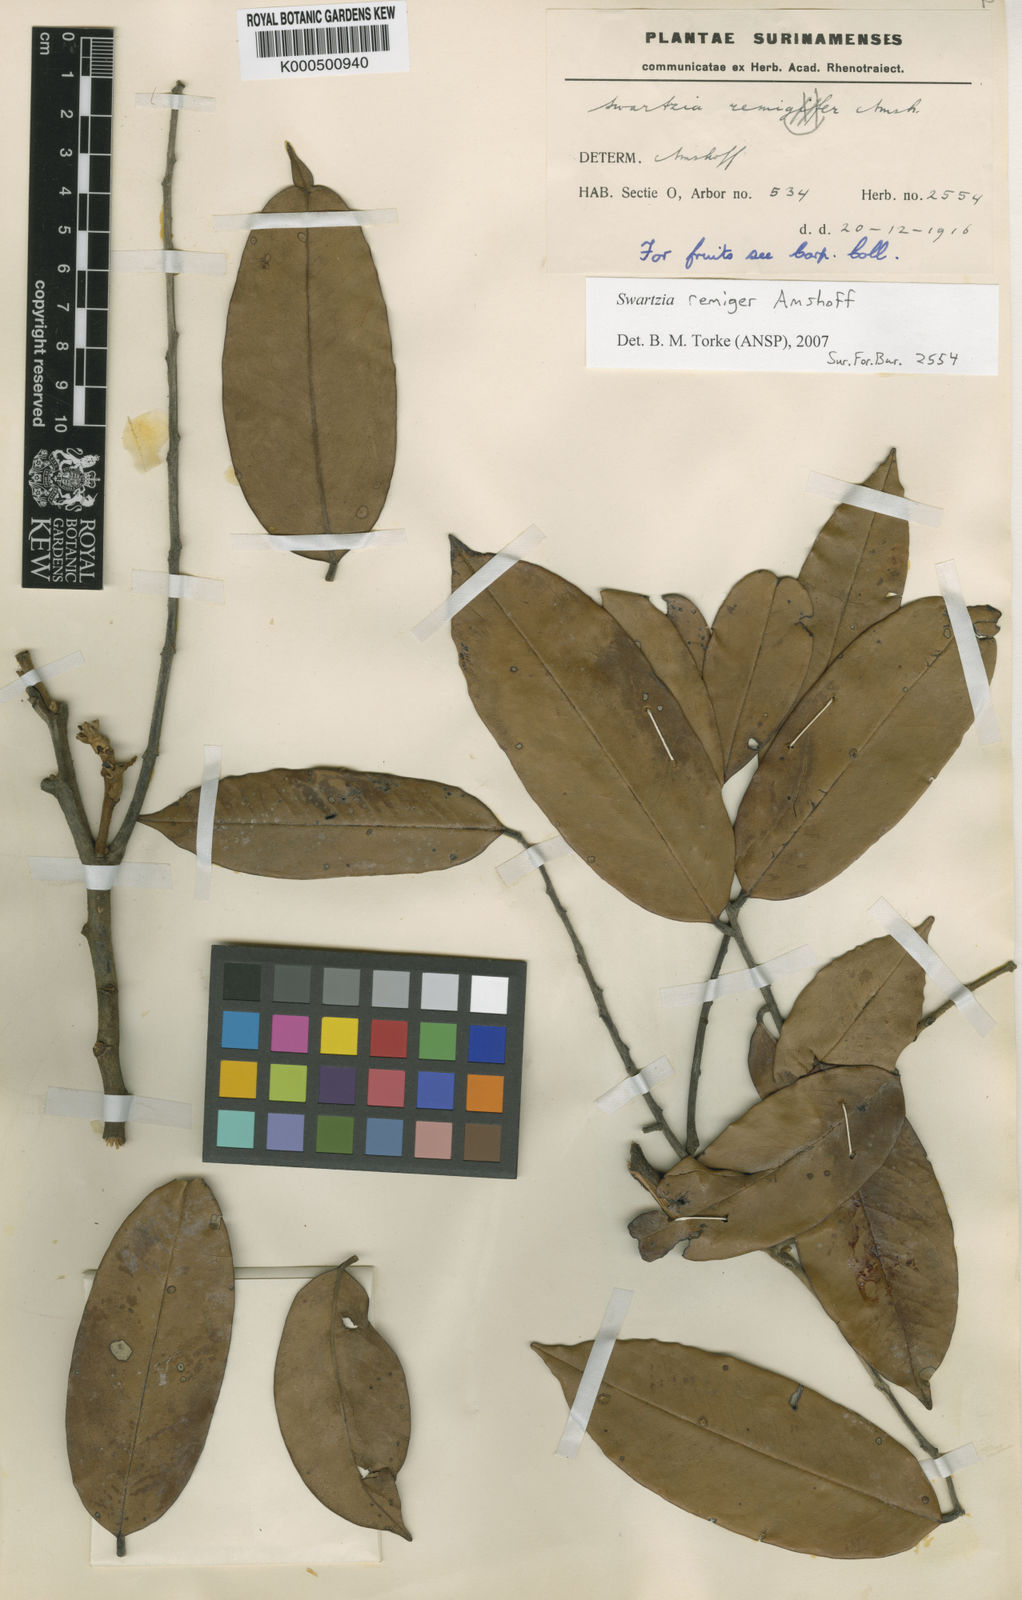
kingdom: Plantae
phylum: Tracheophyta
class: Magnoliopsida
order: Fabales
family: Fabaceae
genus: Swartzia
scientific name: Swartzia
